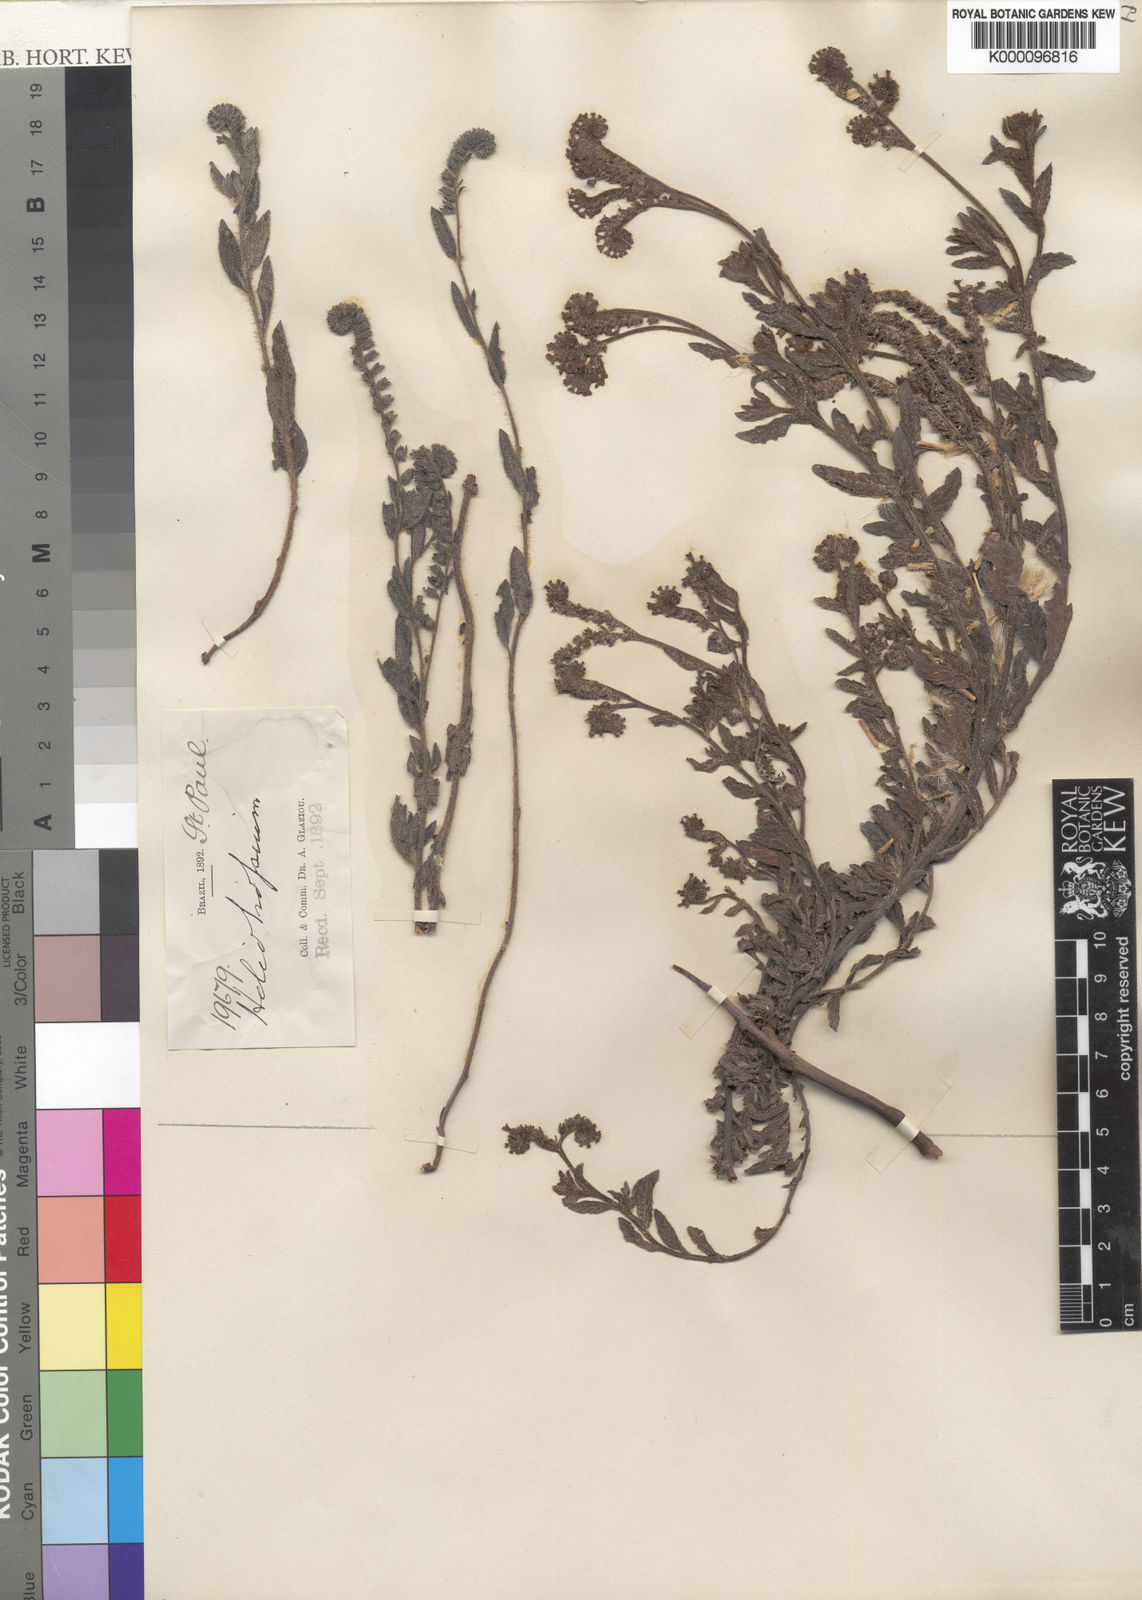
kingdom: Plantae
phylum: Tracheophyta
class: Magnoliopsida
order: Boraginales
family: Heliotropiaceae
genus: Heliotropium
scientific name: Heliotropium amplexicaule
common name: Clasping heliotrope
